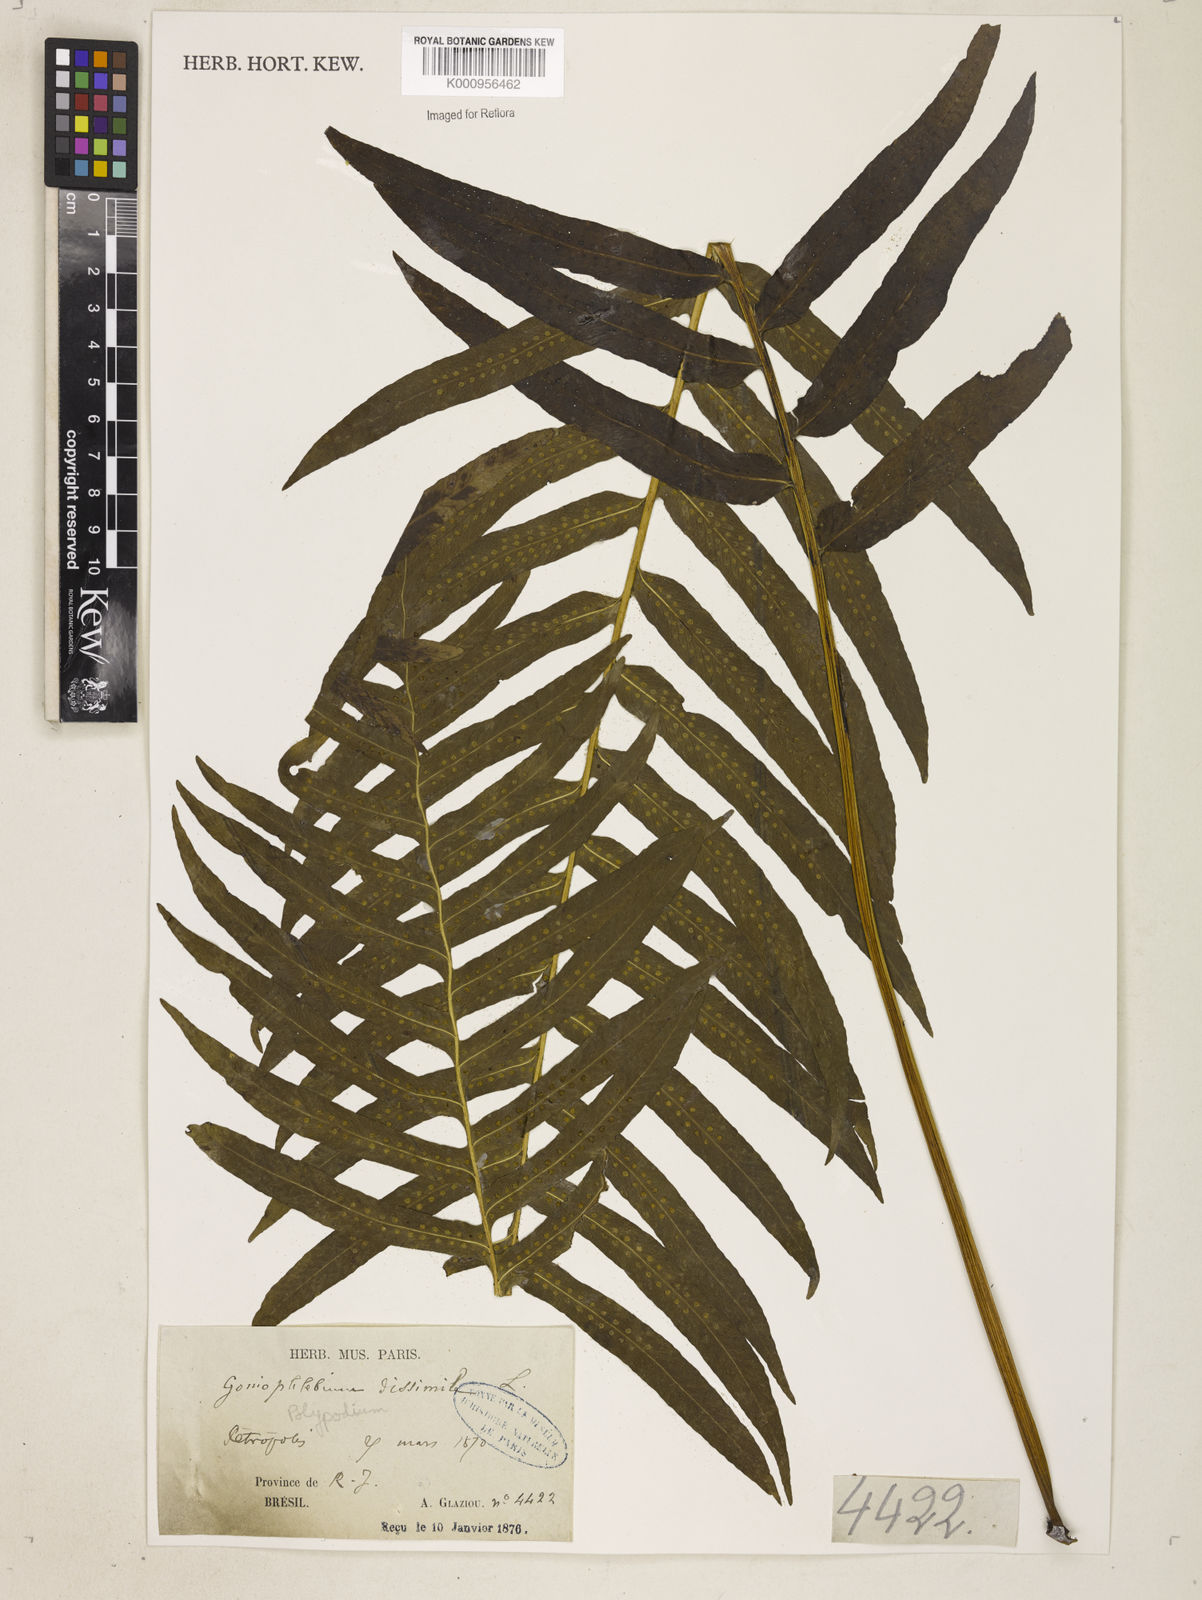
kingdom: Plantae
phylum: Tracheophyta
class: Polypodiopsida
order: Polypodiales
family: Polypodiaceae
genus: Polypodium
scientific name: Polypodium
